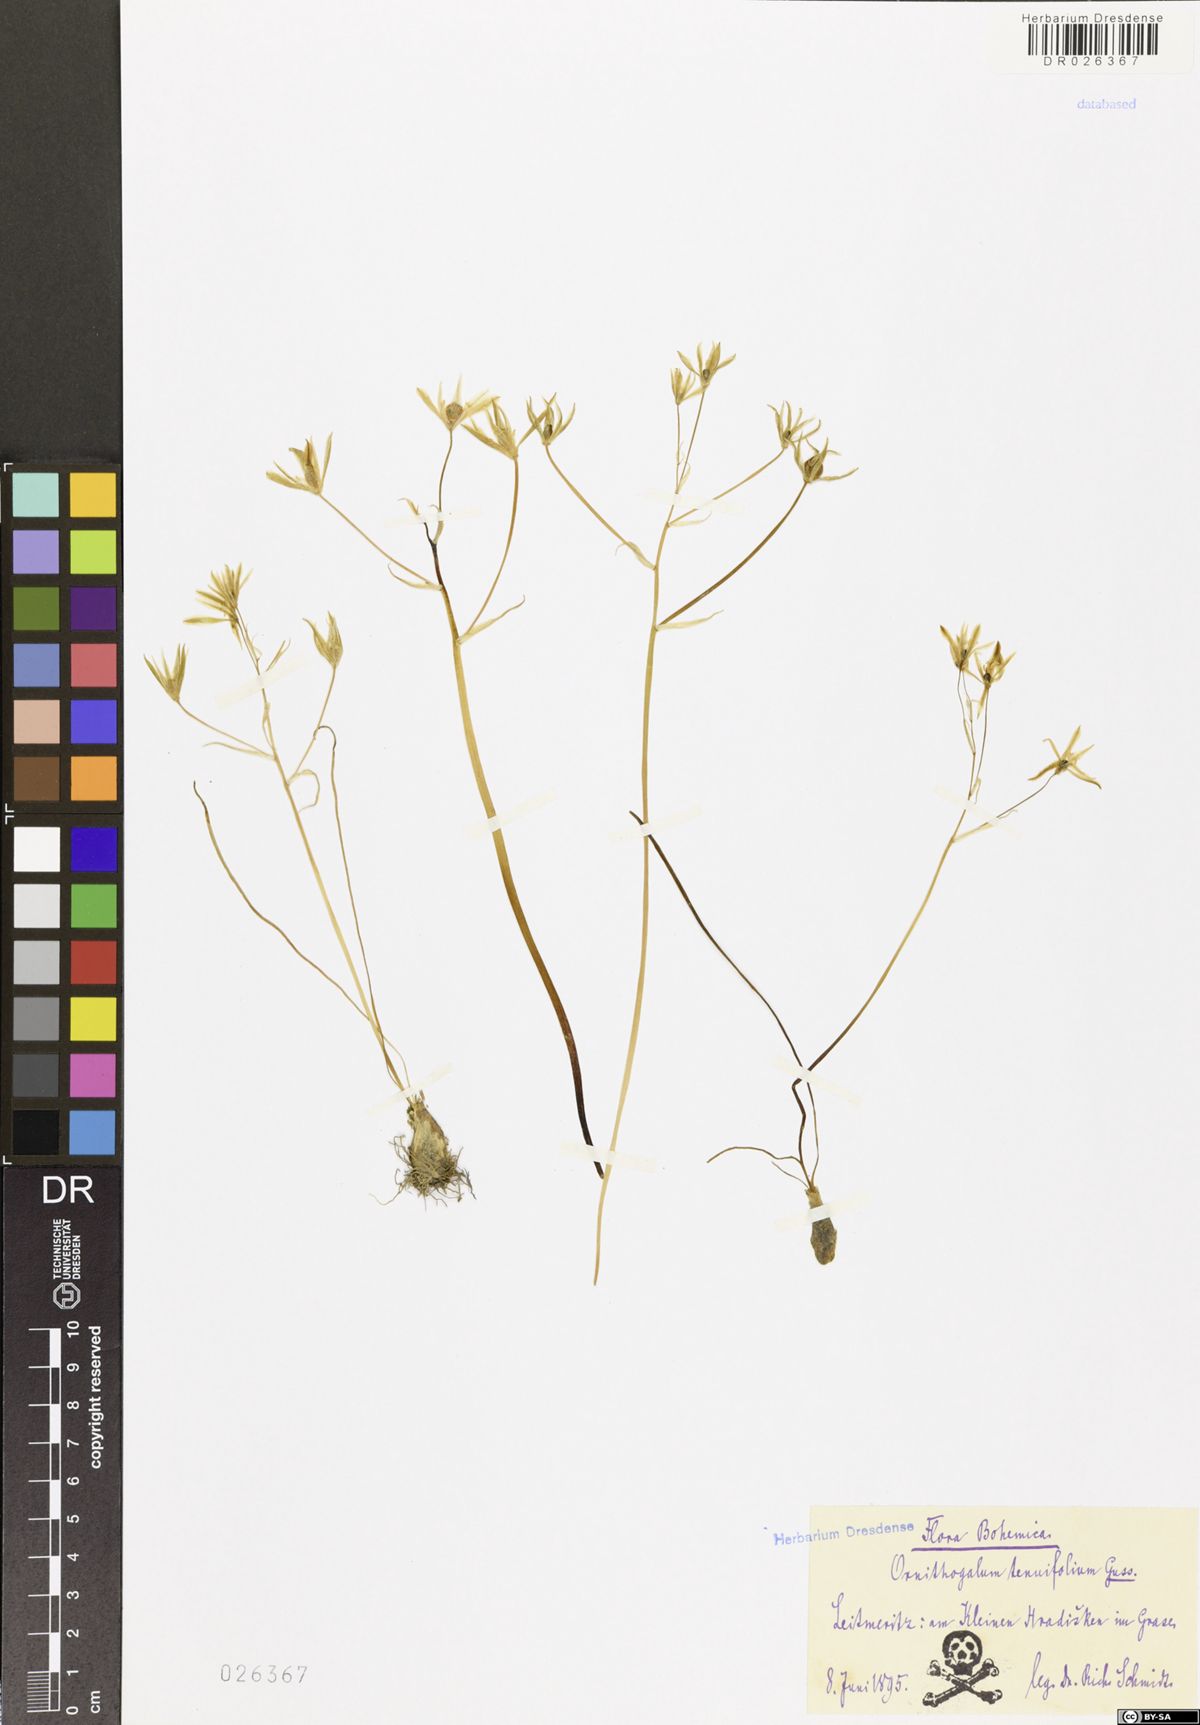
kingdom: Plantae
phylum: Tracheophyta
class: Liliopsida
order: Asparagales
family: Asparagaceae
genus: Ornithogalum
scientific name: Ornithogalum umbellatum
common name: Garden star-of-bethlehem
